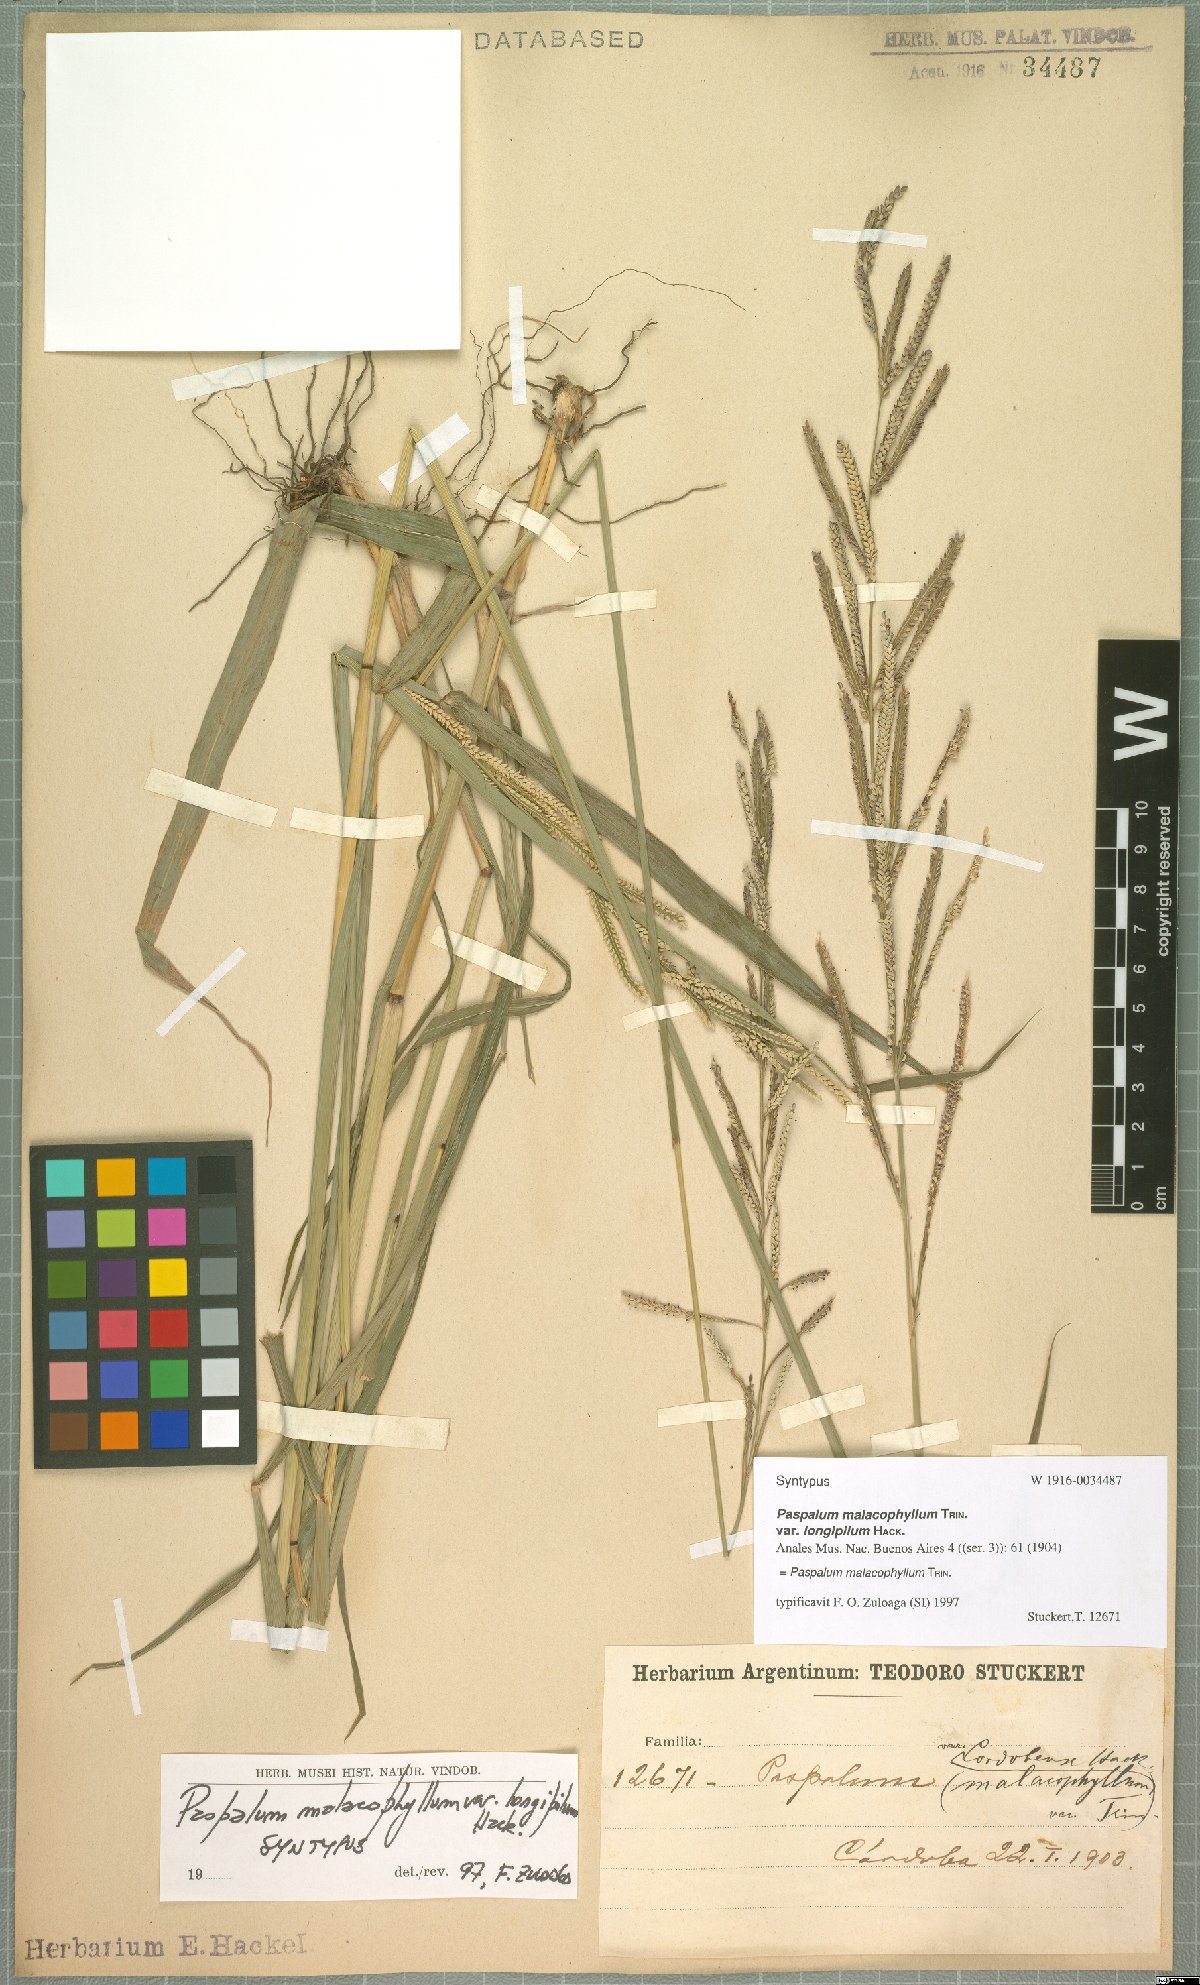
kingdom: Plantae
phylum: Tracheophyta
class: Liliopsida
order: Poales
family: Poaceae
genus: Paspalum
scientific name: Paspalum malacophyllum
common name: Ribbed paspalum
